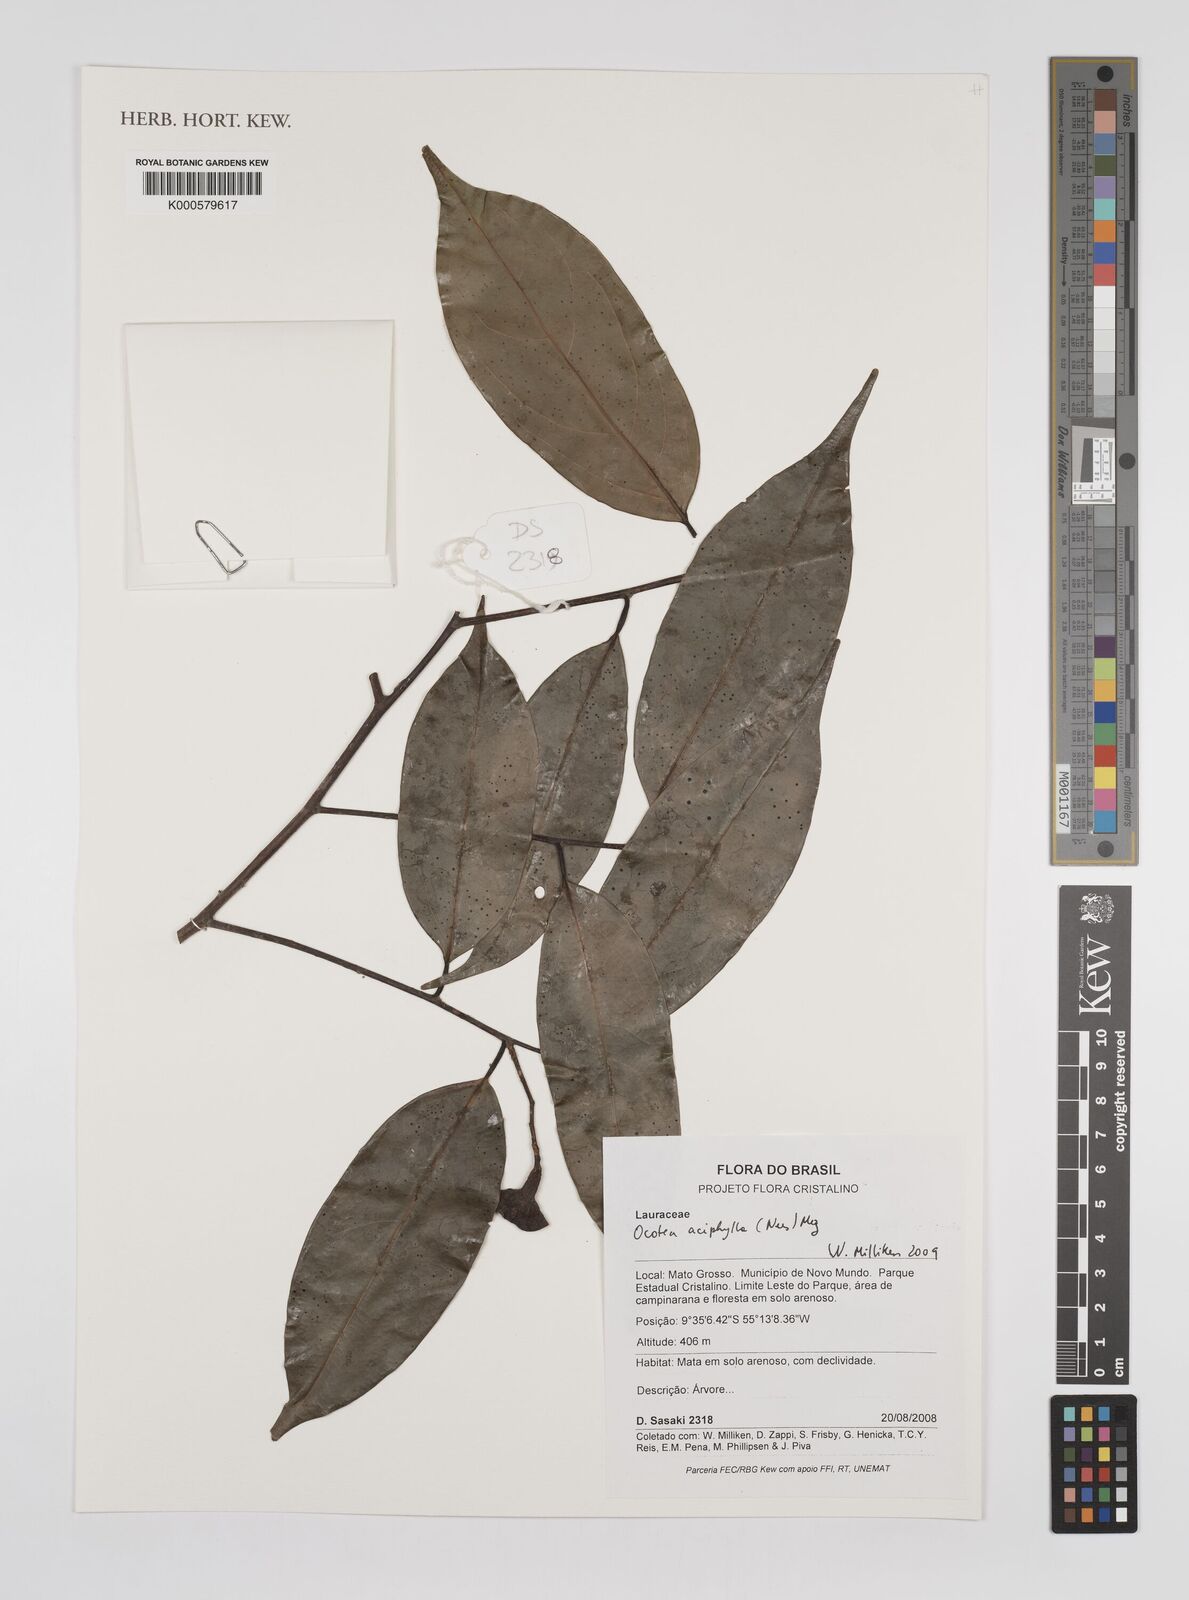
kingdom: Plantae
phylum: Tracheophyta
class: Magnoliopsida
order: Laurales
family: Lauraceae
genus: Ocotea
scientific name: Ocotea aciphylla
